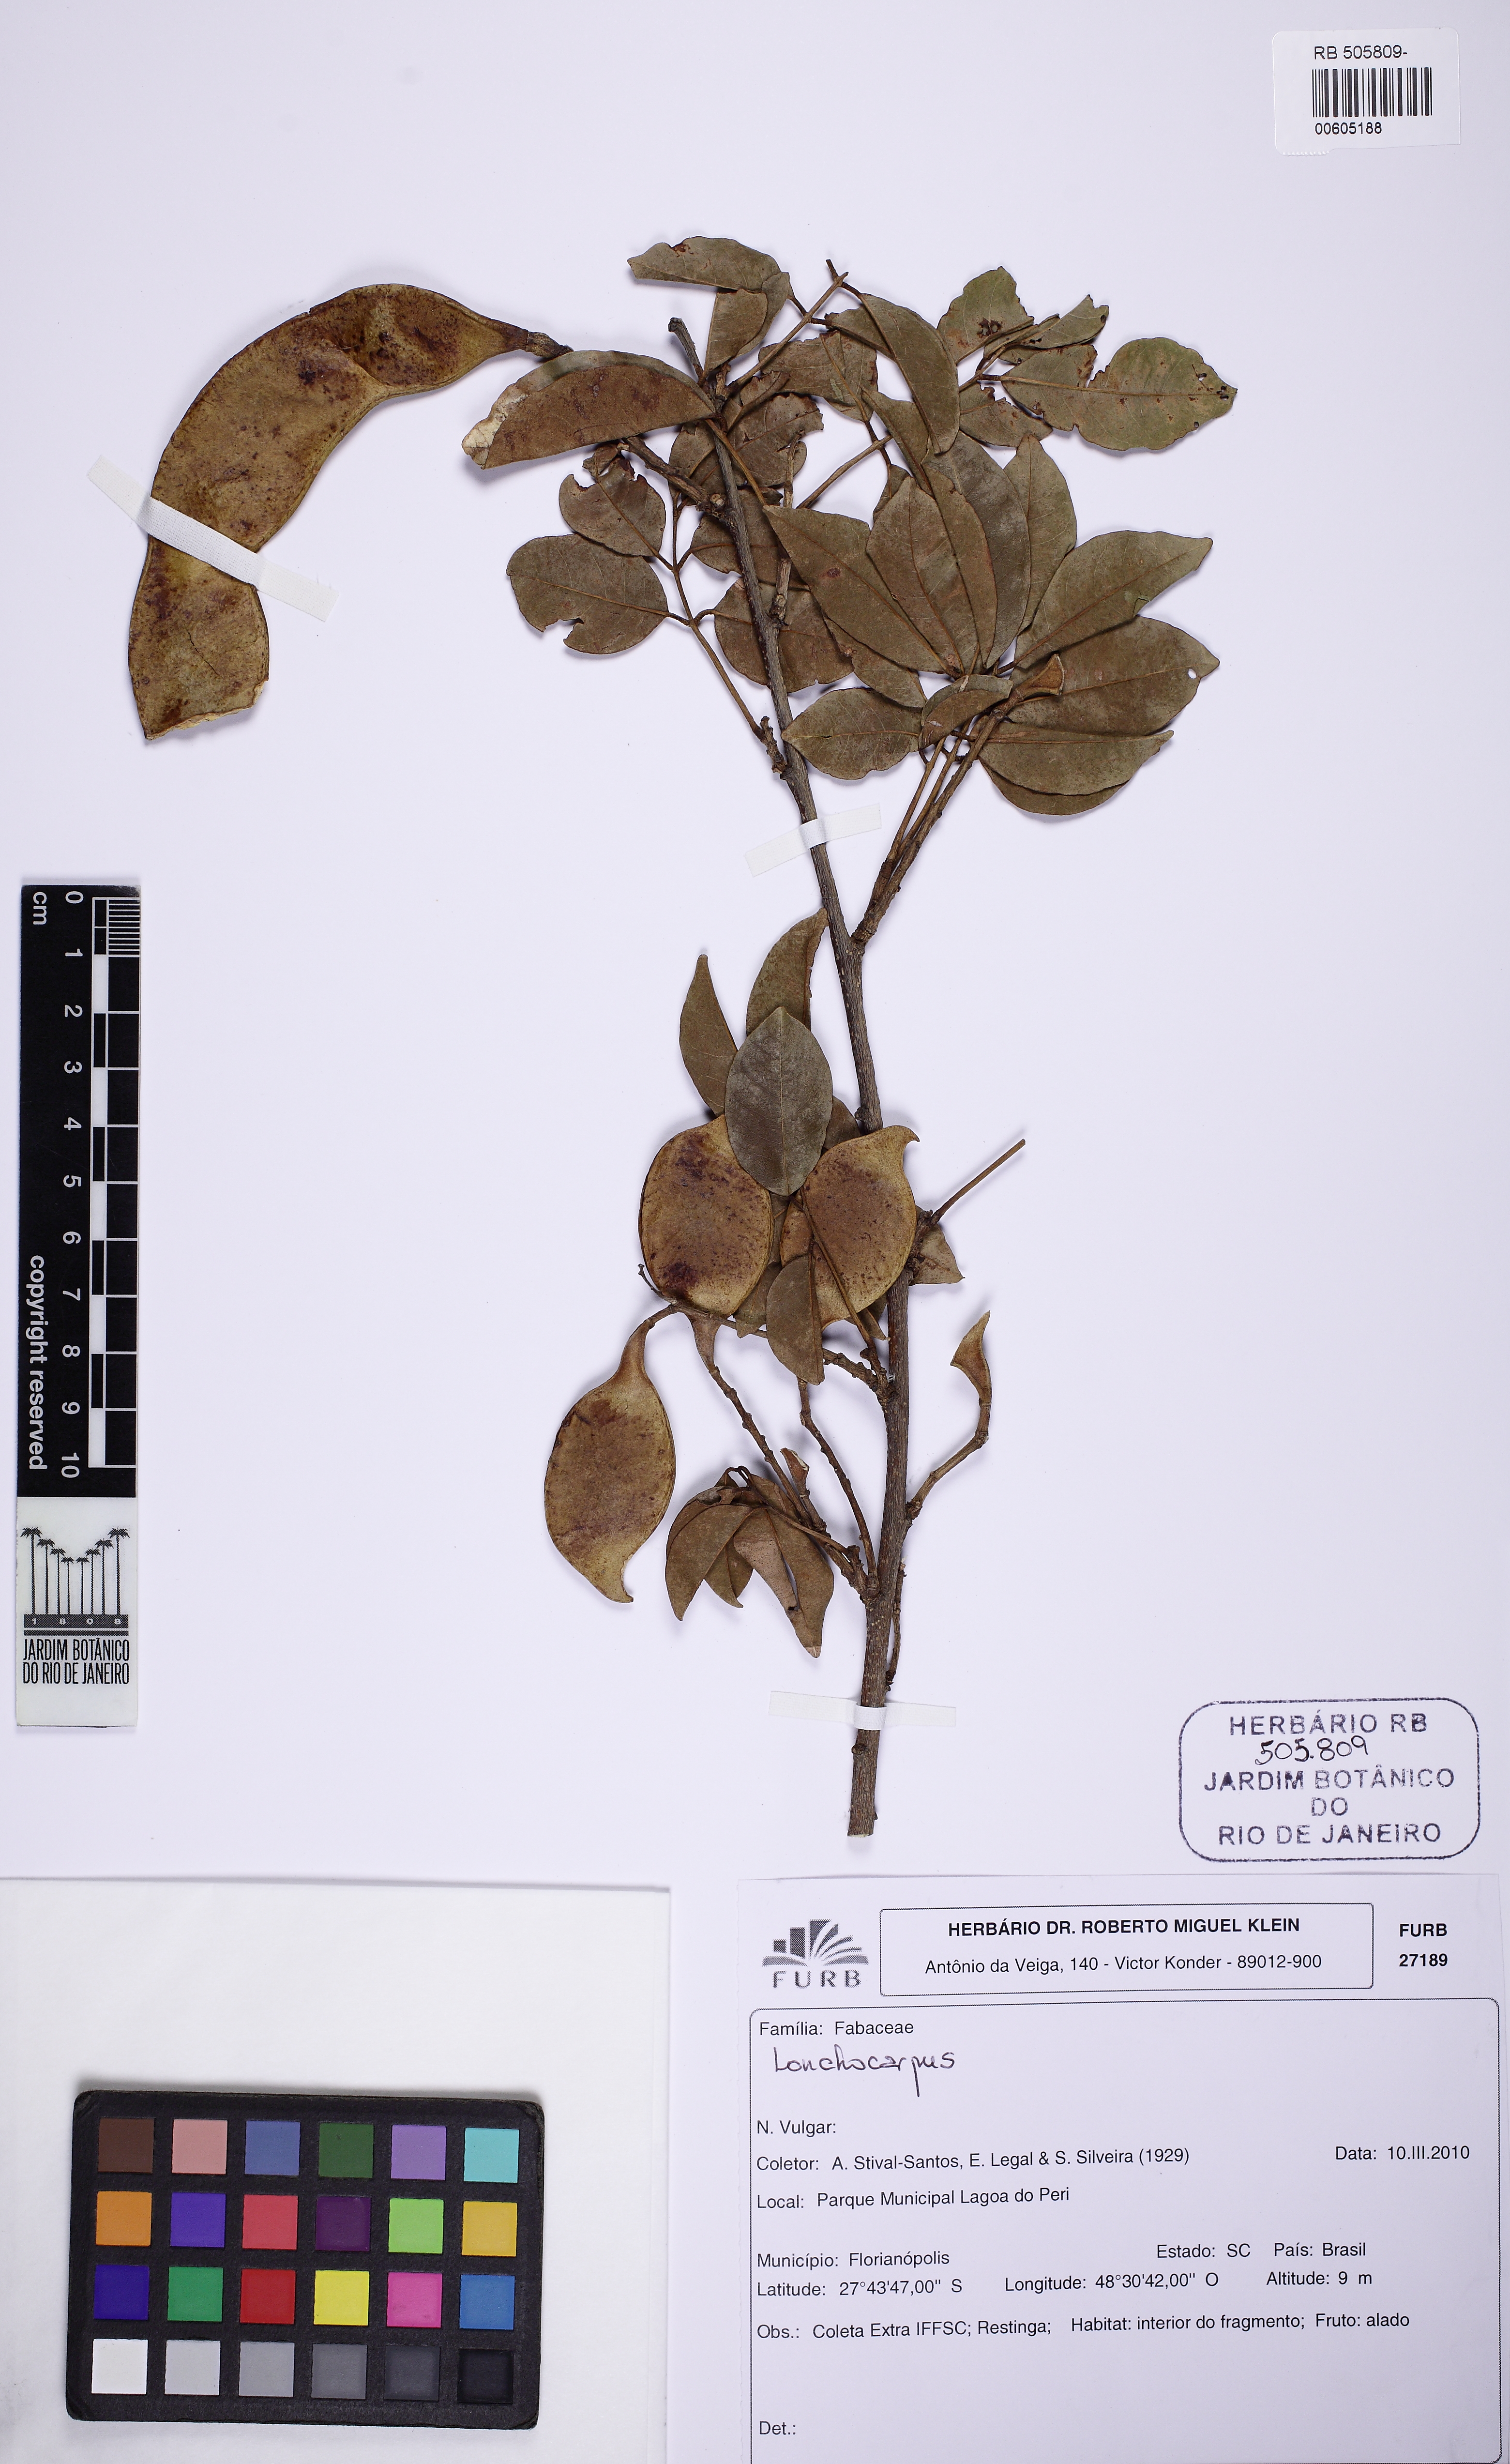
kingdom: Plantae
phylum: Tracheophyta
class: Magnoliopsida
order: Fabales
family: Fabaceae
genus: Muellera
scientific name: Muellera grazielae
